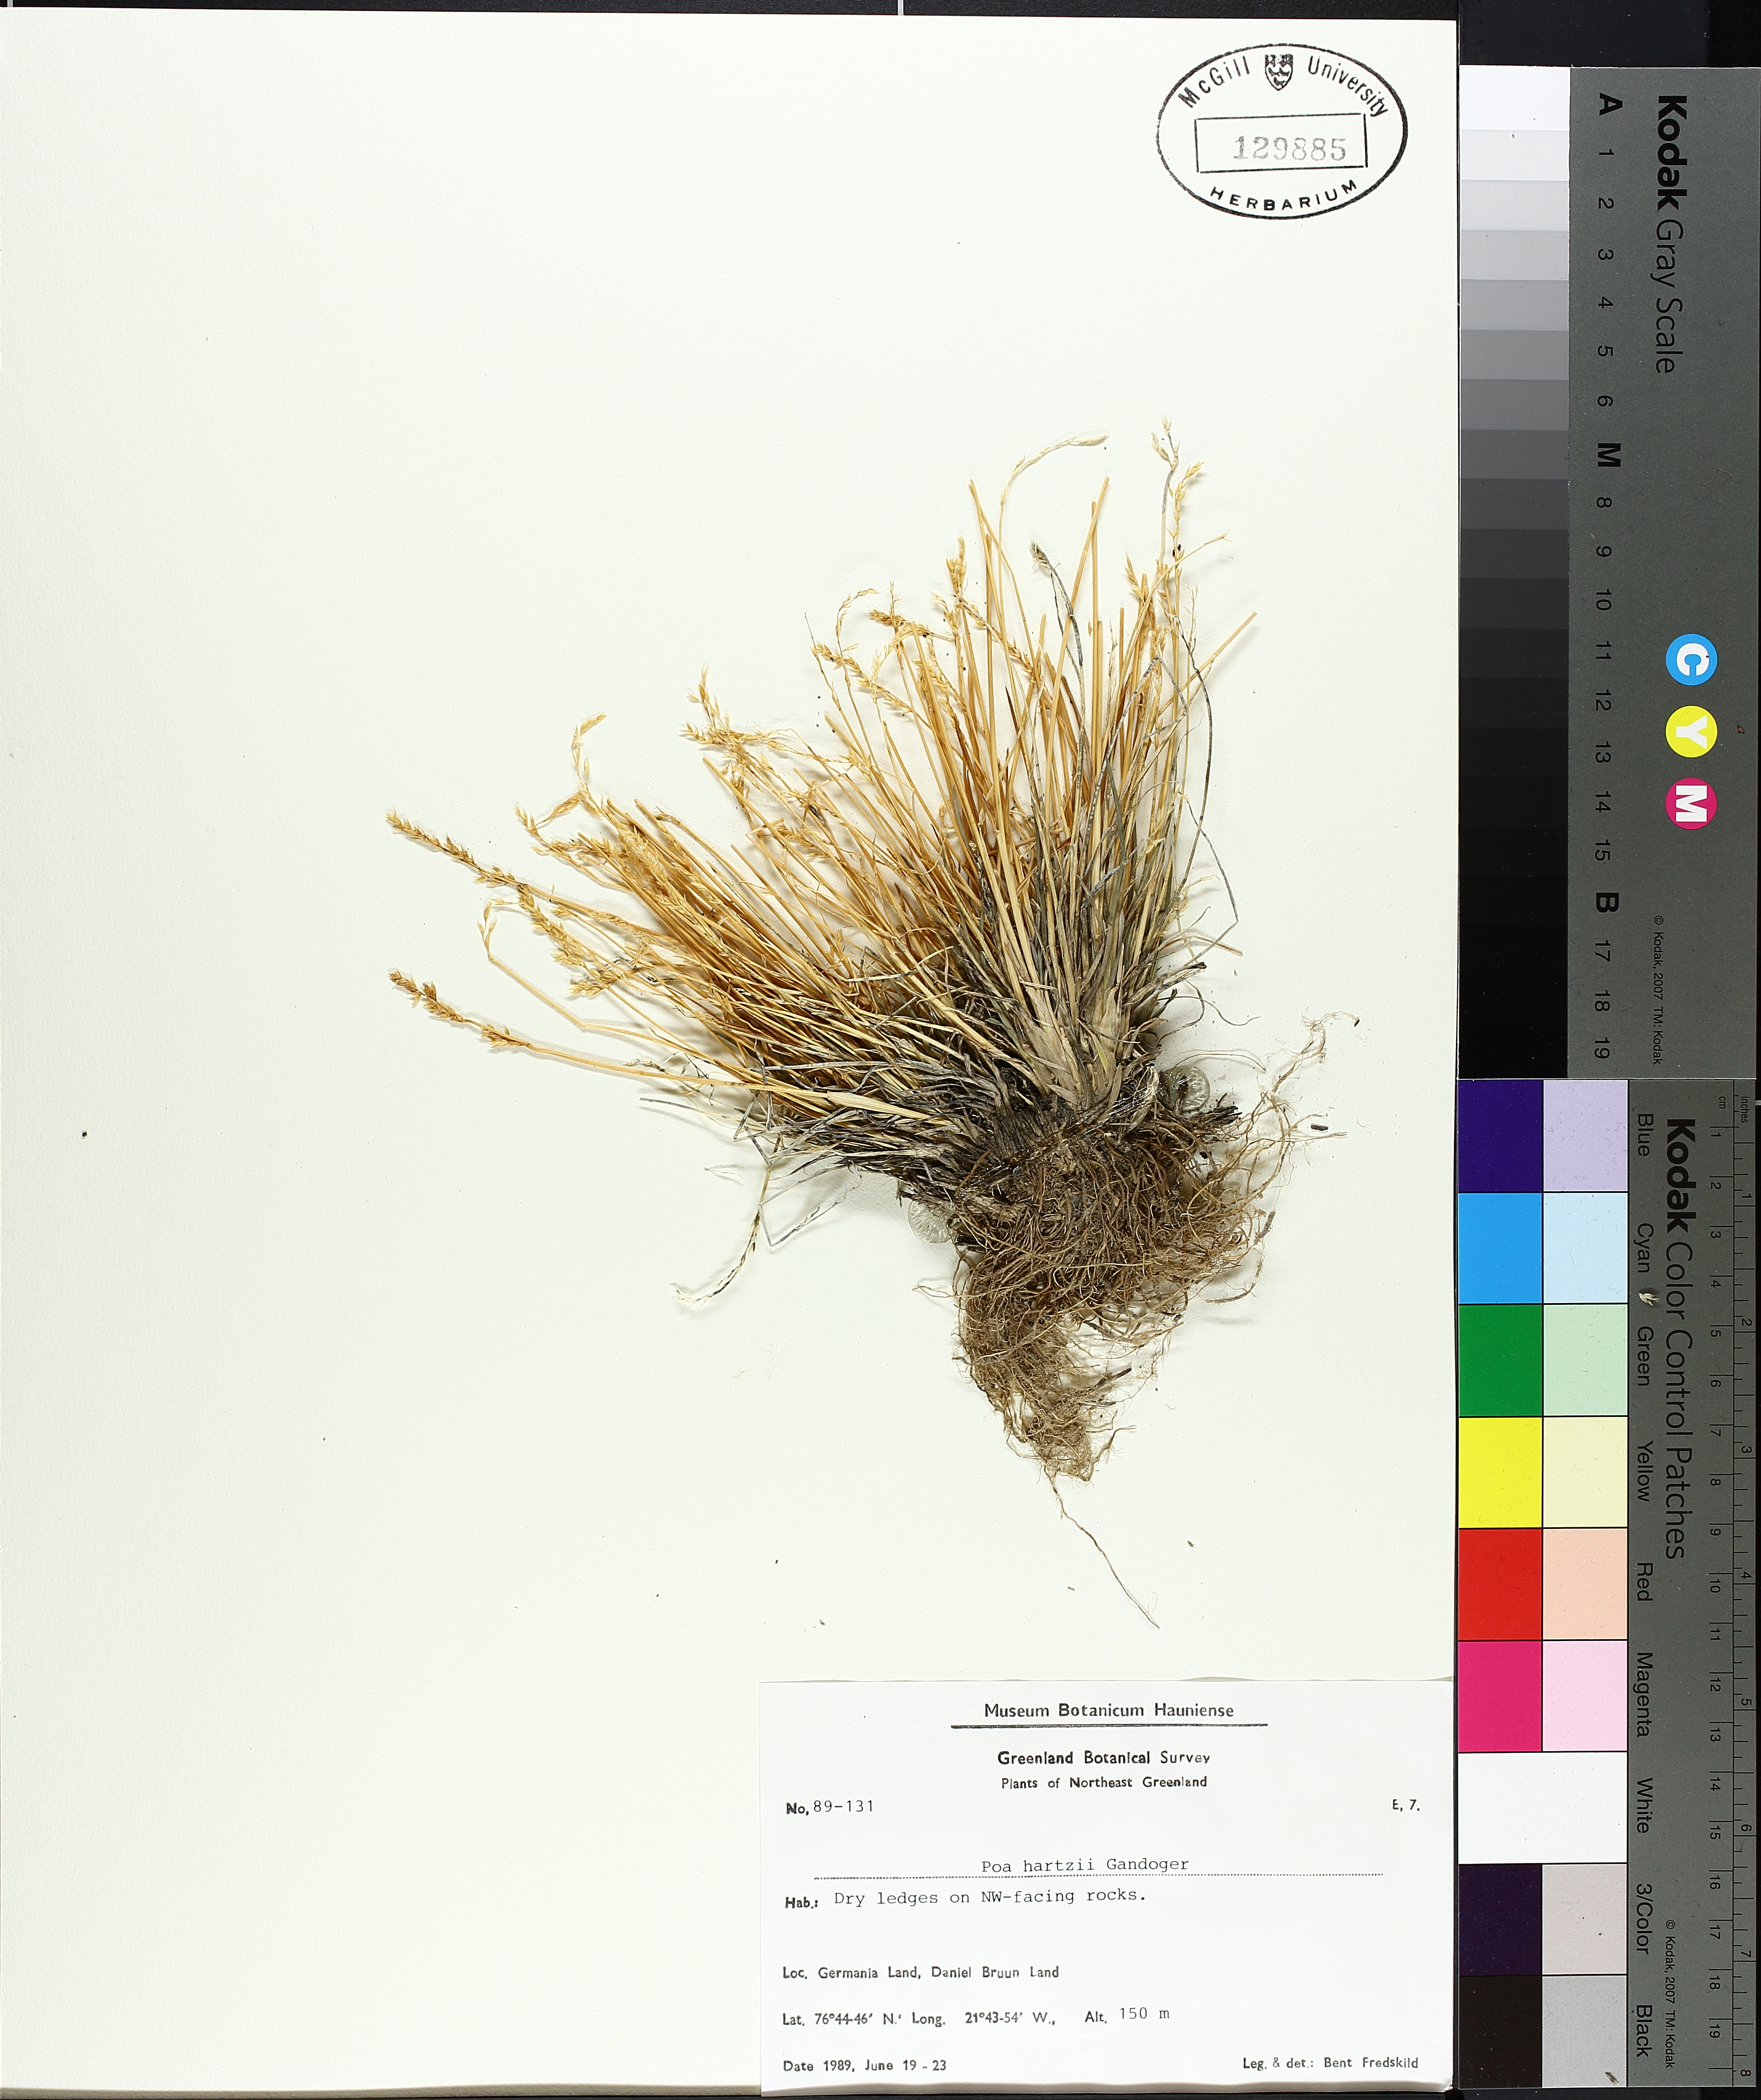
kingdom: Plantae
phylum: Tracheophyta
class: Liliopsida
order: Poales
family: Cyperaceae
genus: Carex
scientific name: Carex trisperma
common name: Three-seeded sedge
